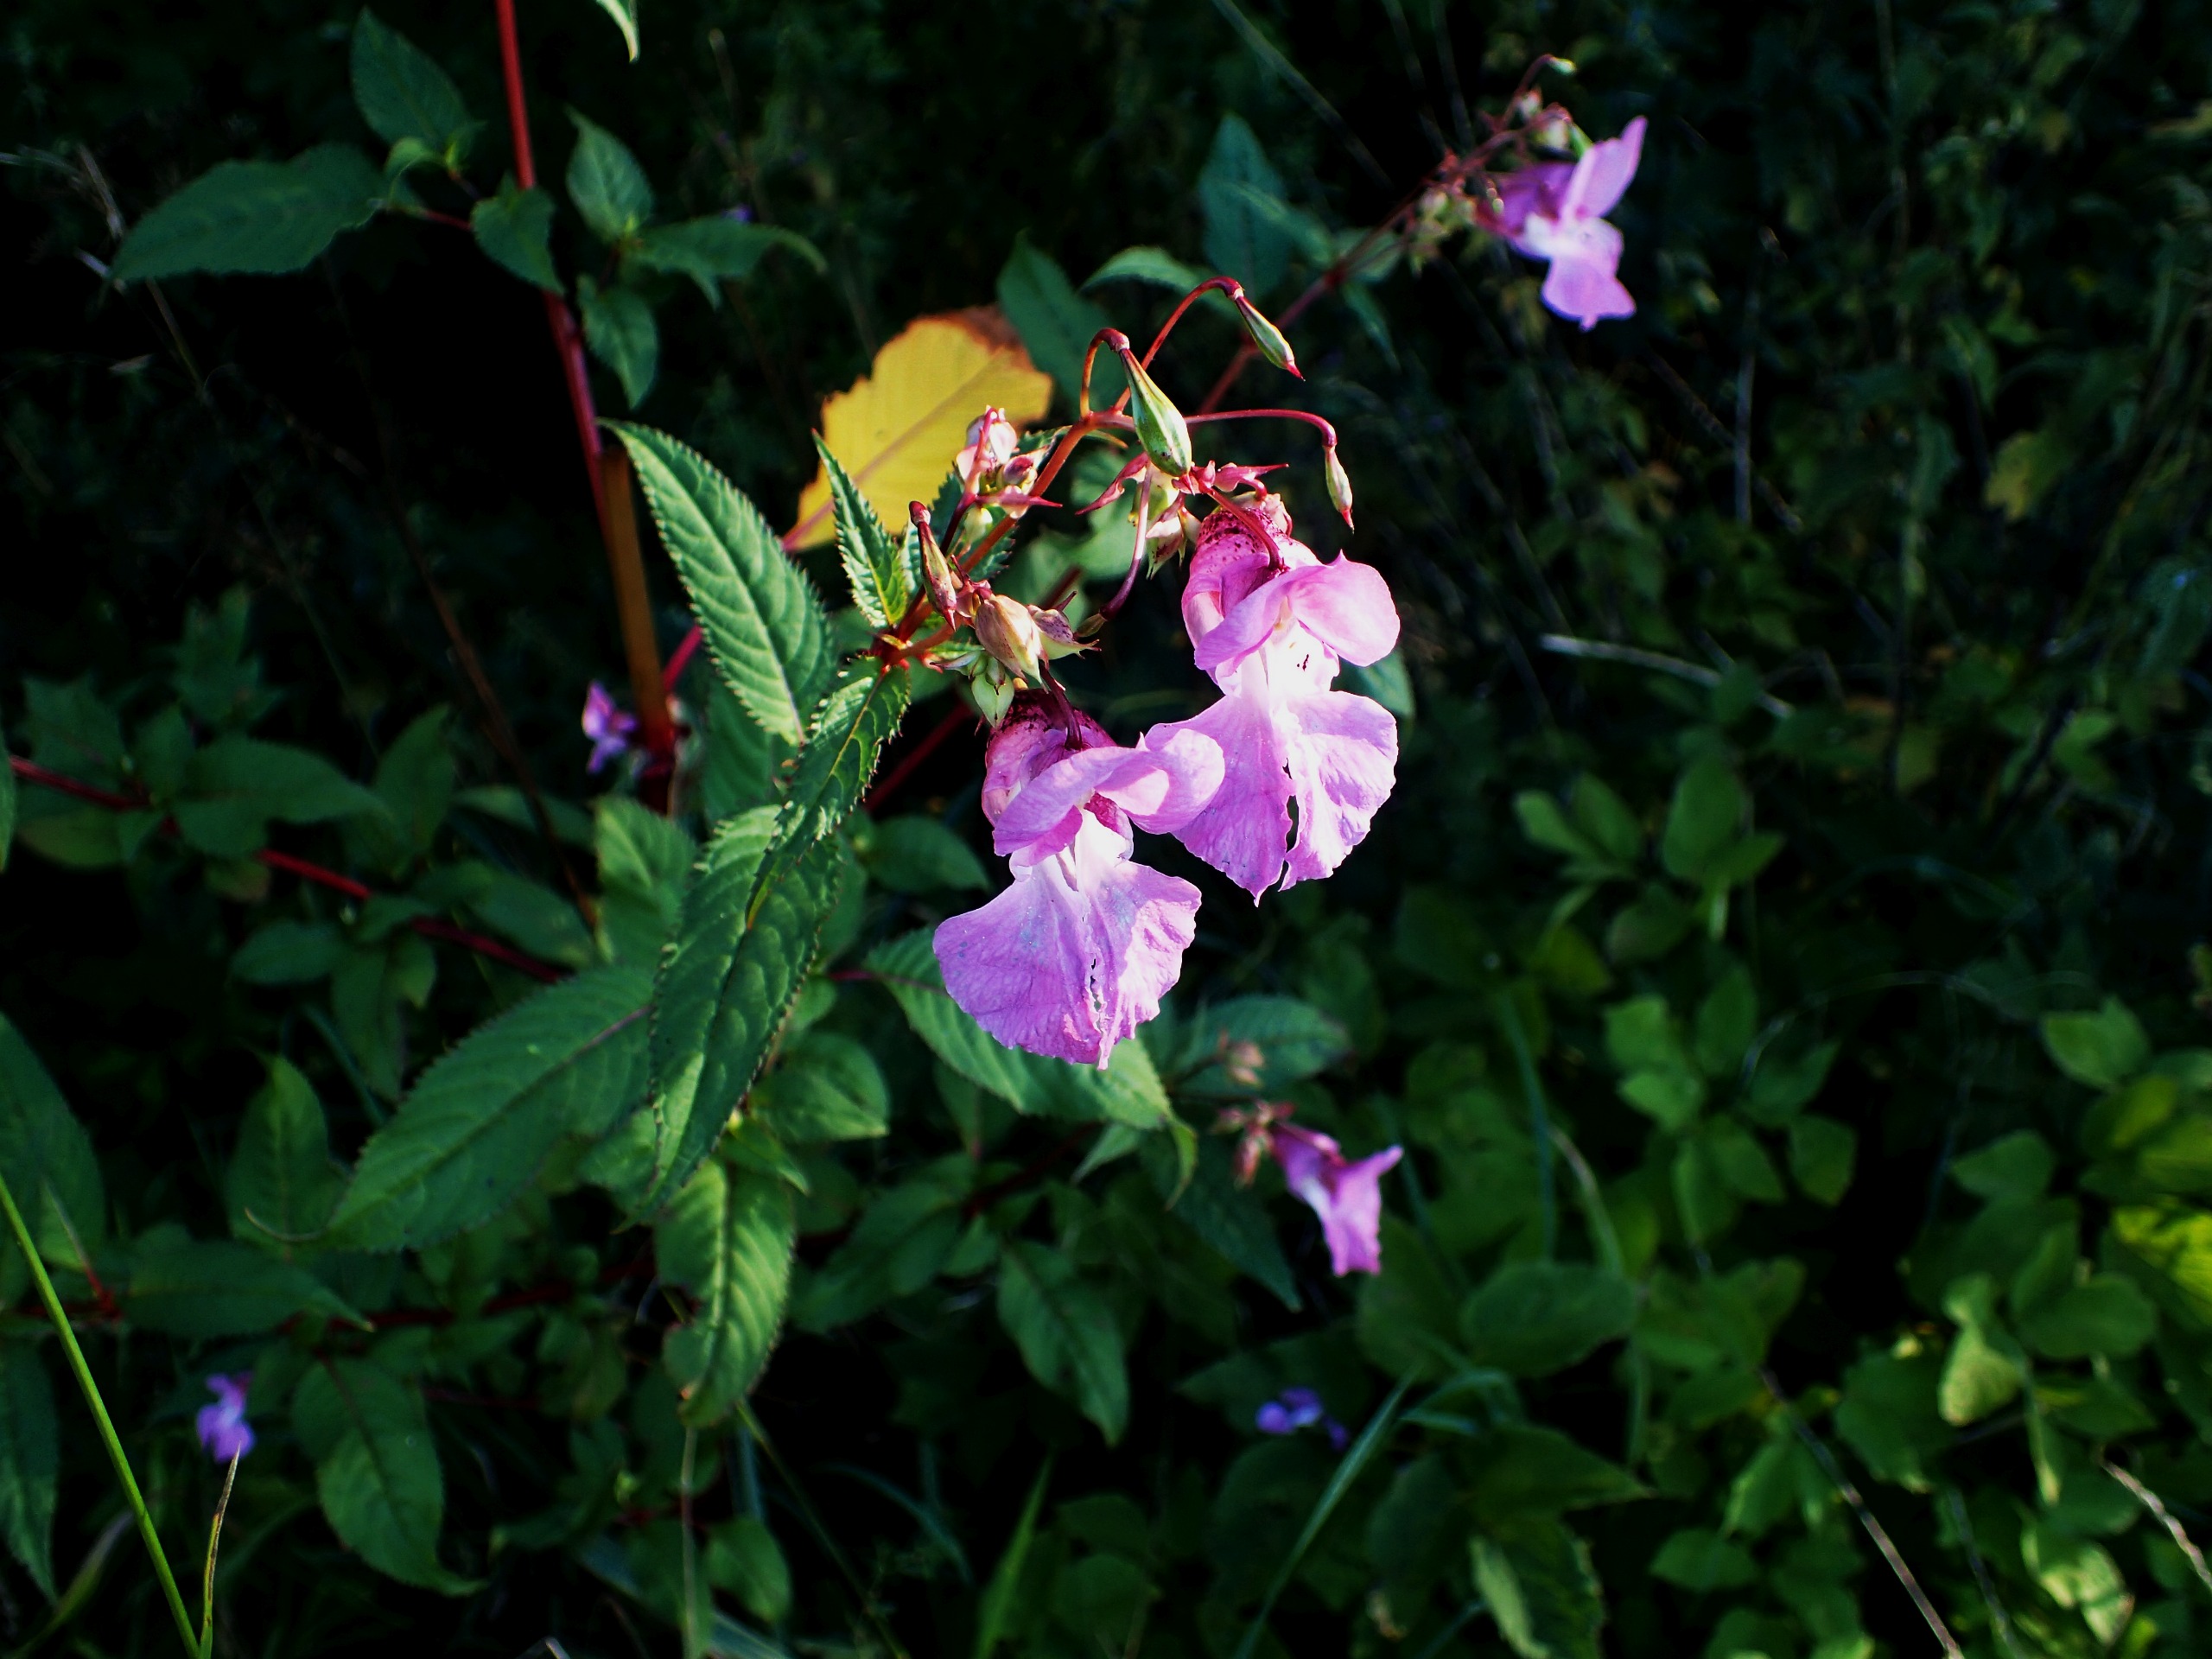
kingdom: Plantae
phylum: Tracheophyta
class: Magnoliopsida
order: Ericales
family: Balsaminaceae
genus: Impatiens
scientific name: Impatiens glandulifera
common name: Kæmpe-balsamin
